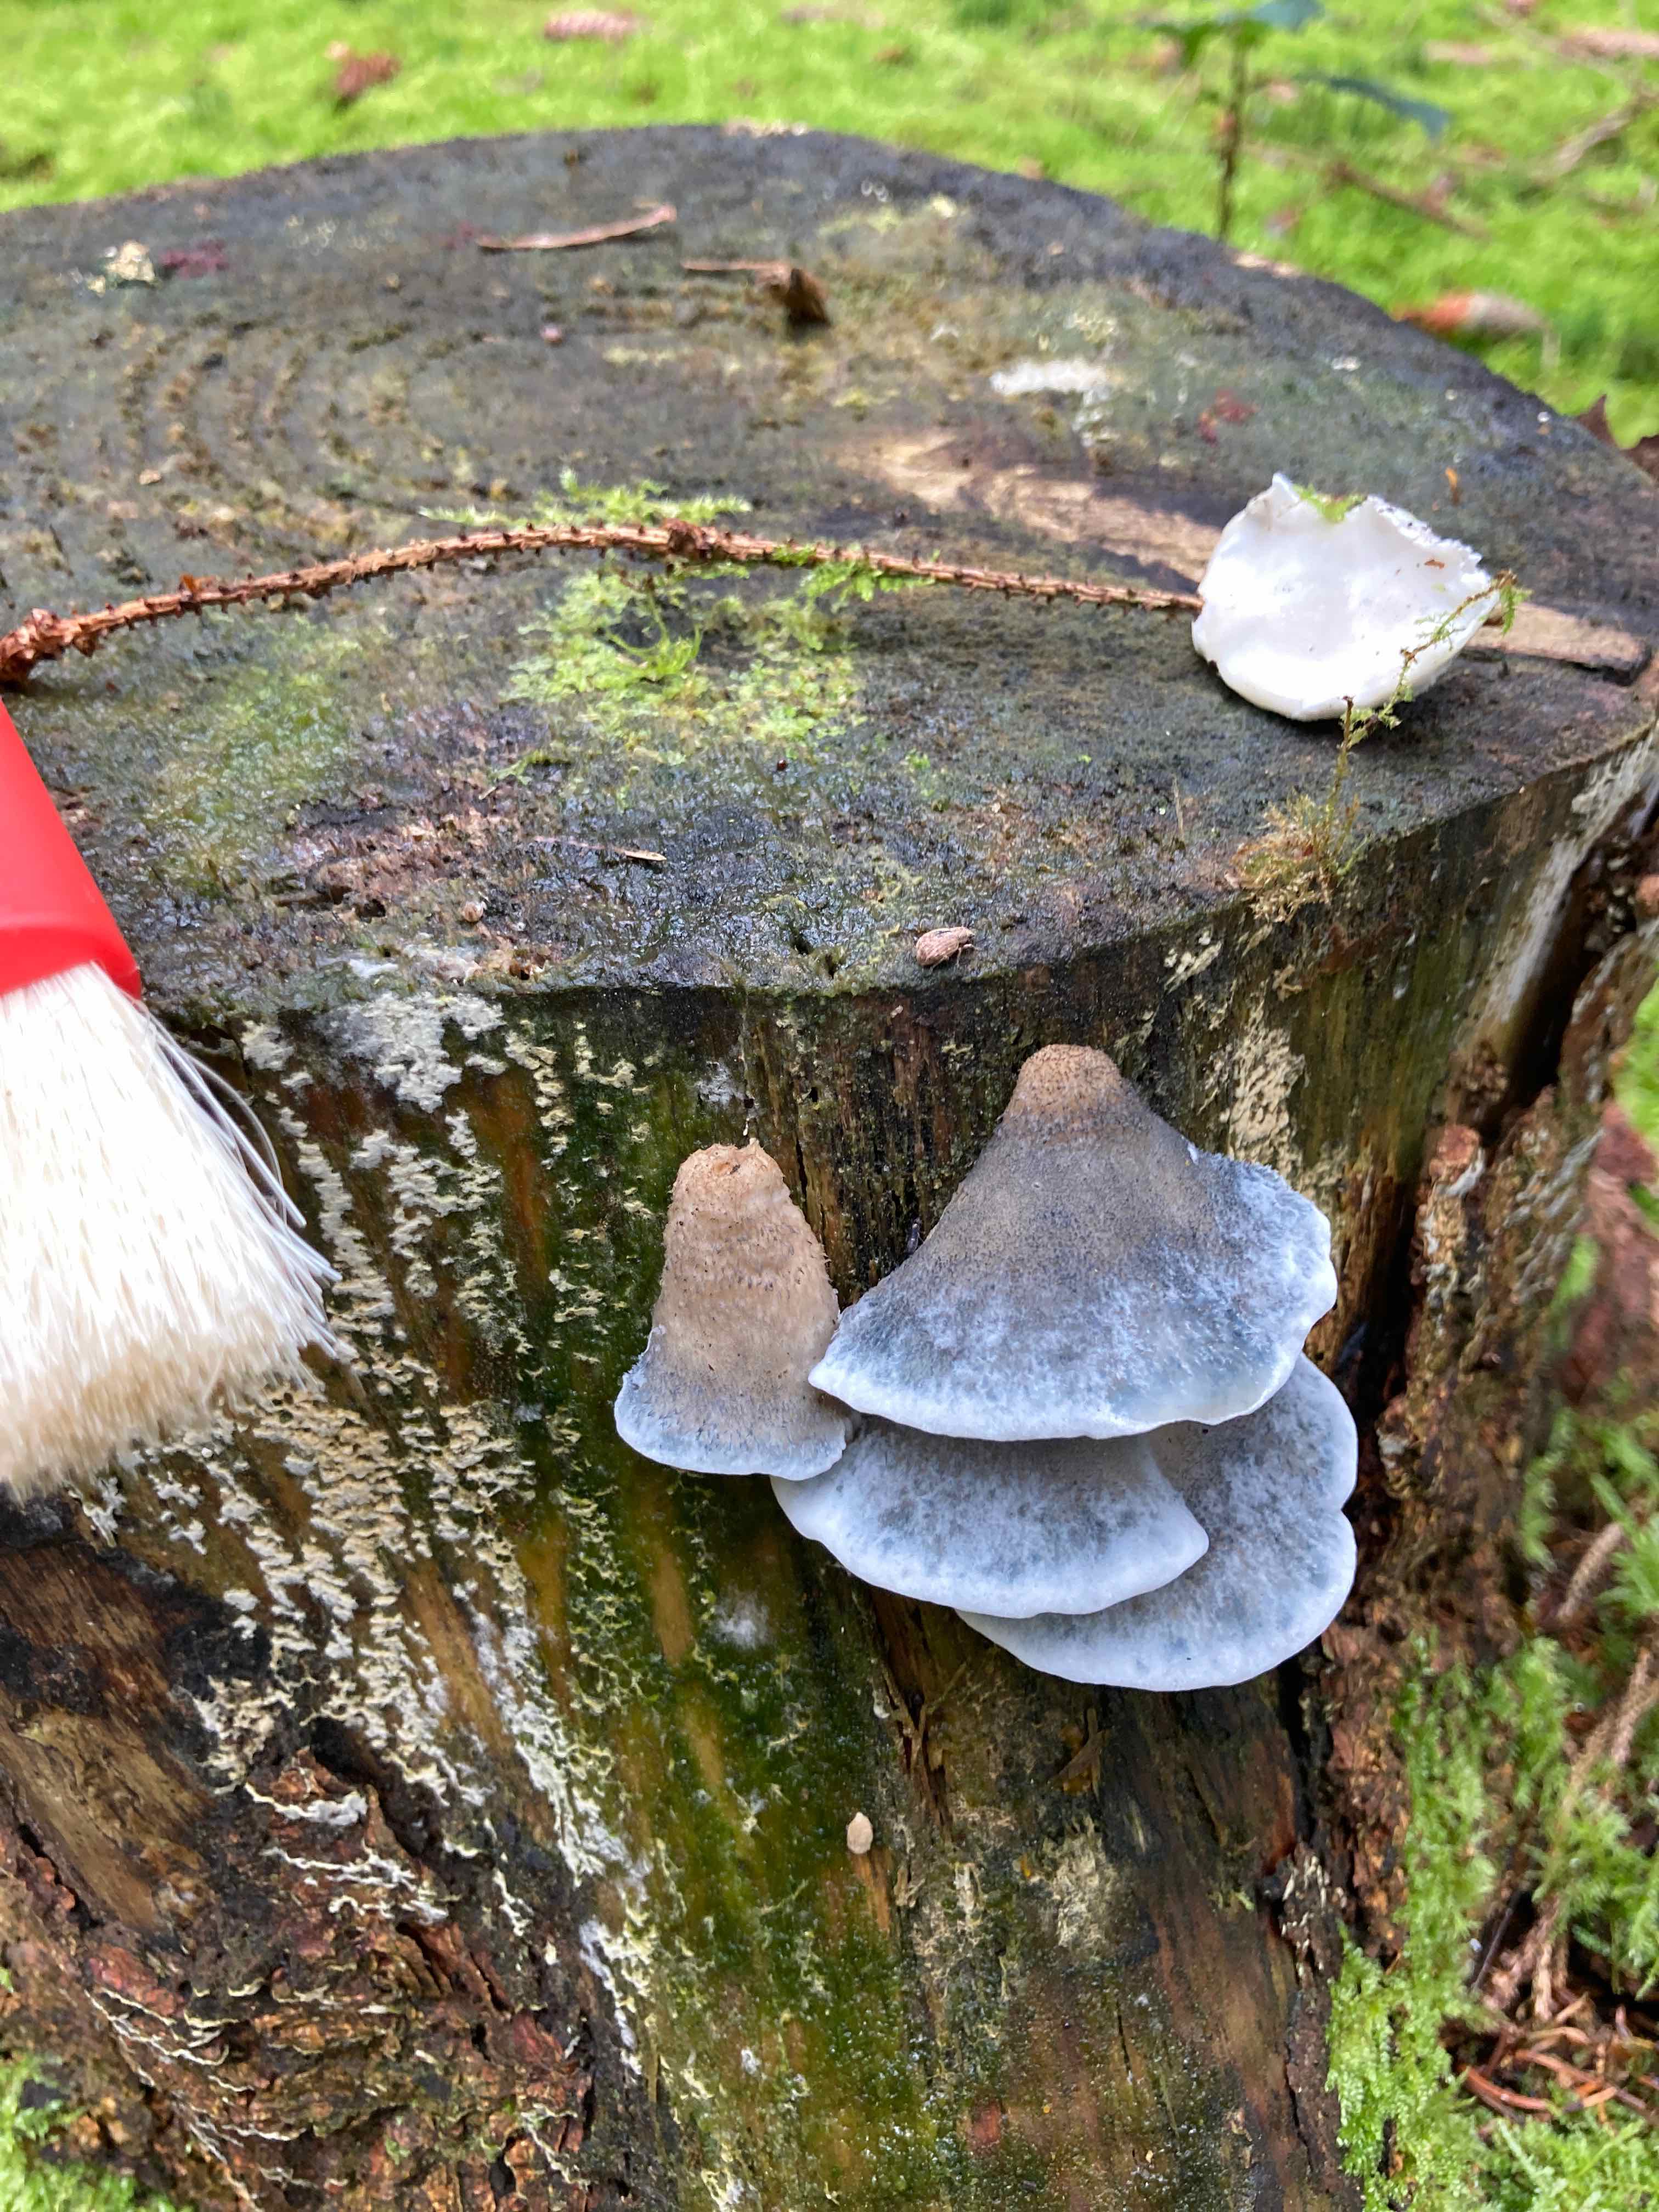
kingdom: Fungi
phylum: Basidiomycota
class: Agaricomycetes
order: Polyporales
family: Polyporaceae
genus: Cyanosporus
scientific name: Cyanosporus caesius
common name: blålig kødporesvamp
